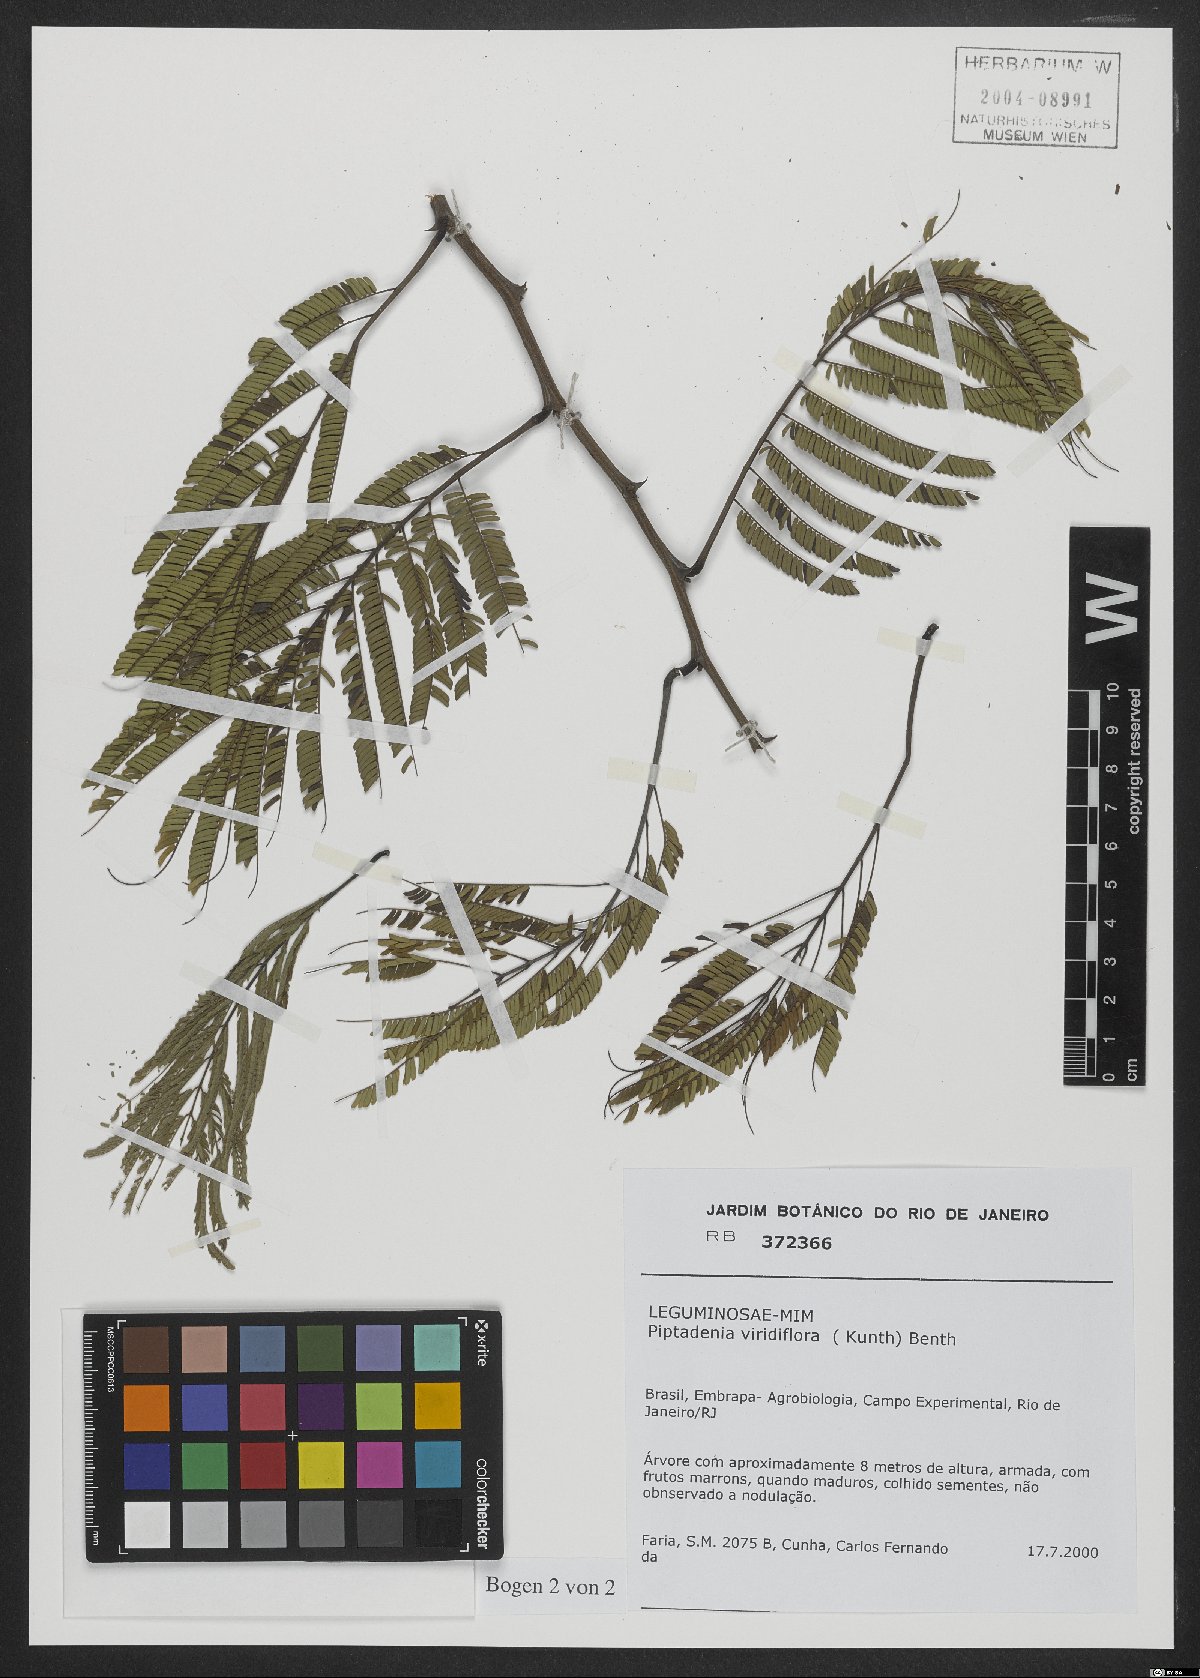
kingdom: Plantae
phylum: Tracheophyta
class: Magnoliopsida
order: Fabales
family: Fabaceae
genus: Lachesiodendron
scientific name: Lachesiodendron viridiflorum
